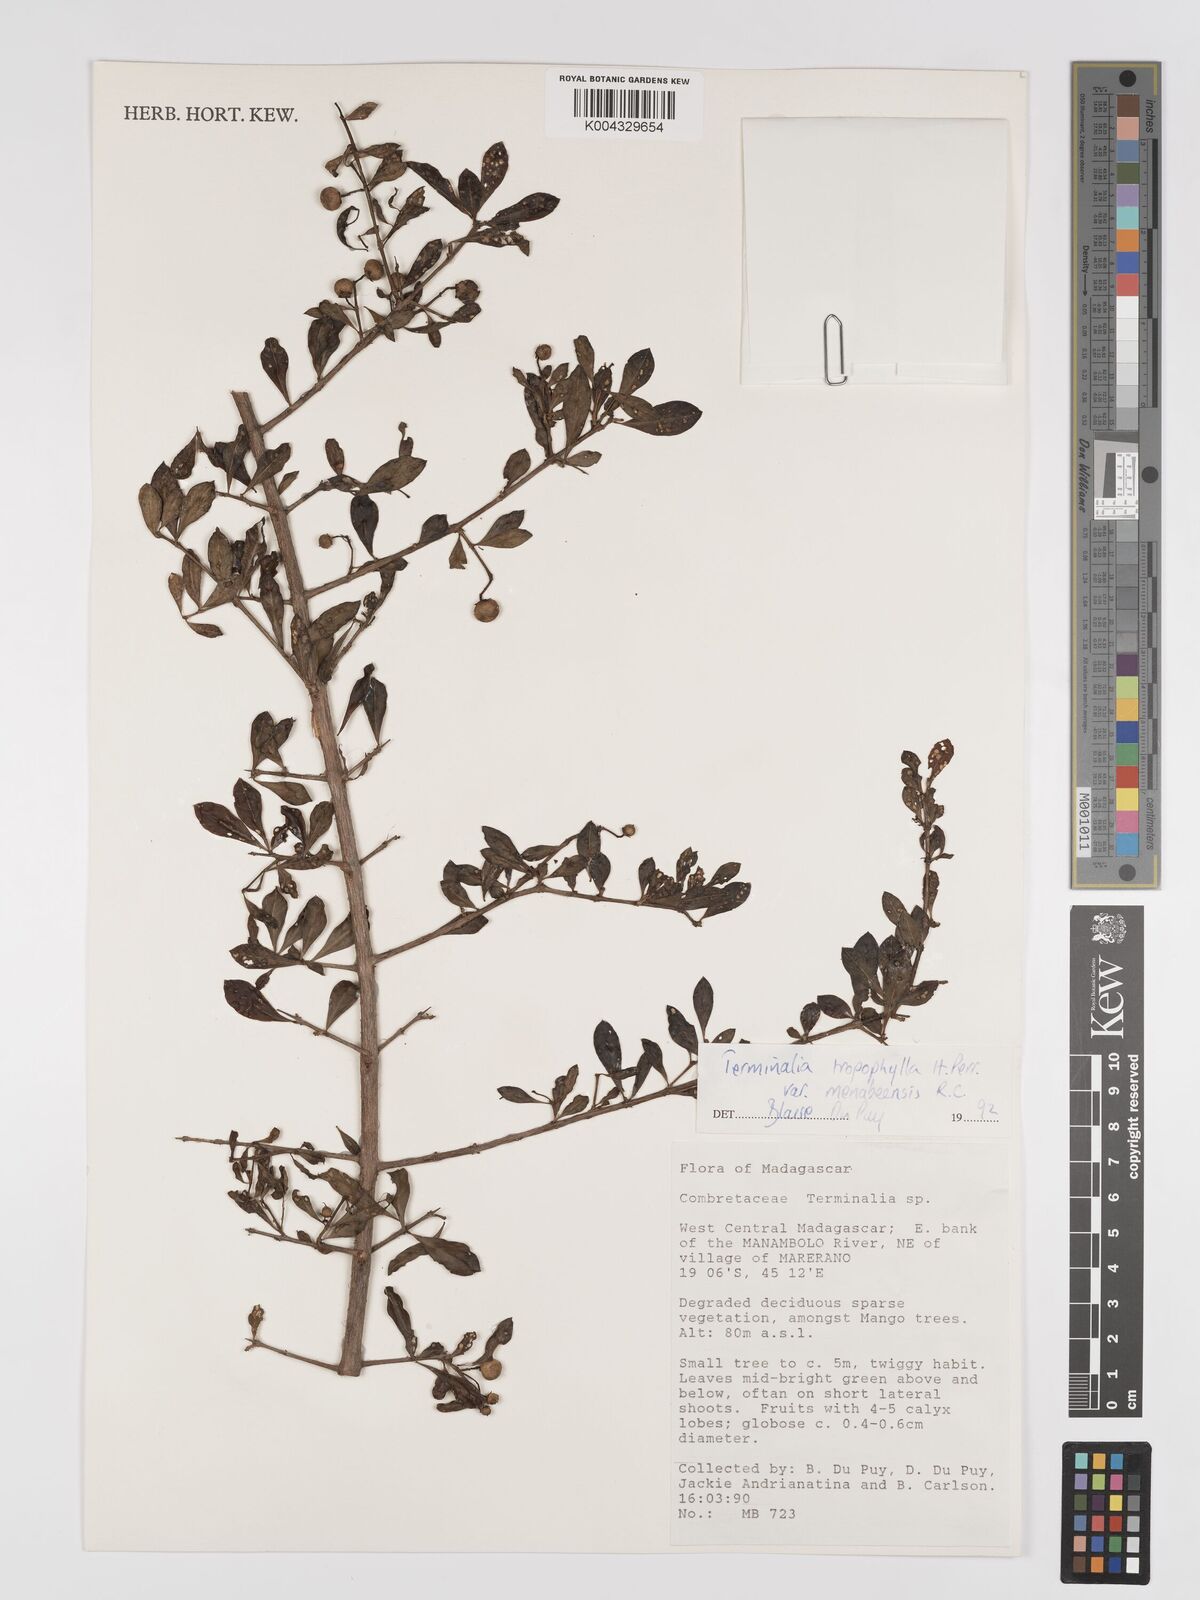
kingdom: Plantae
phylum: Tracheophyta
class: Magnoliopsida
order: Myrtales
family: Combretaceae
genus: Terminalia
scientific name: Terminalia tropophylla
